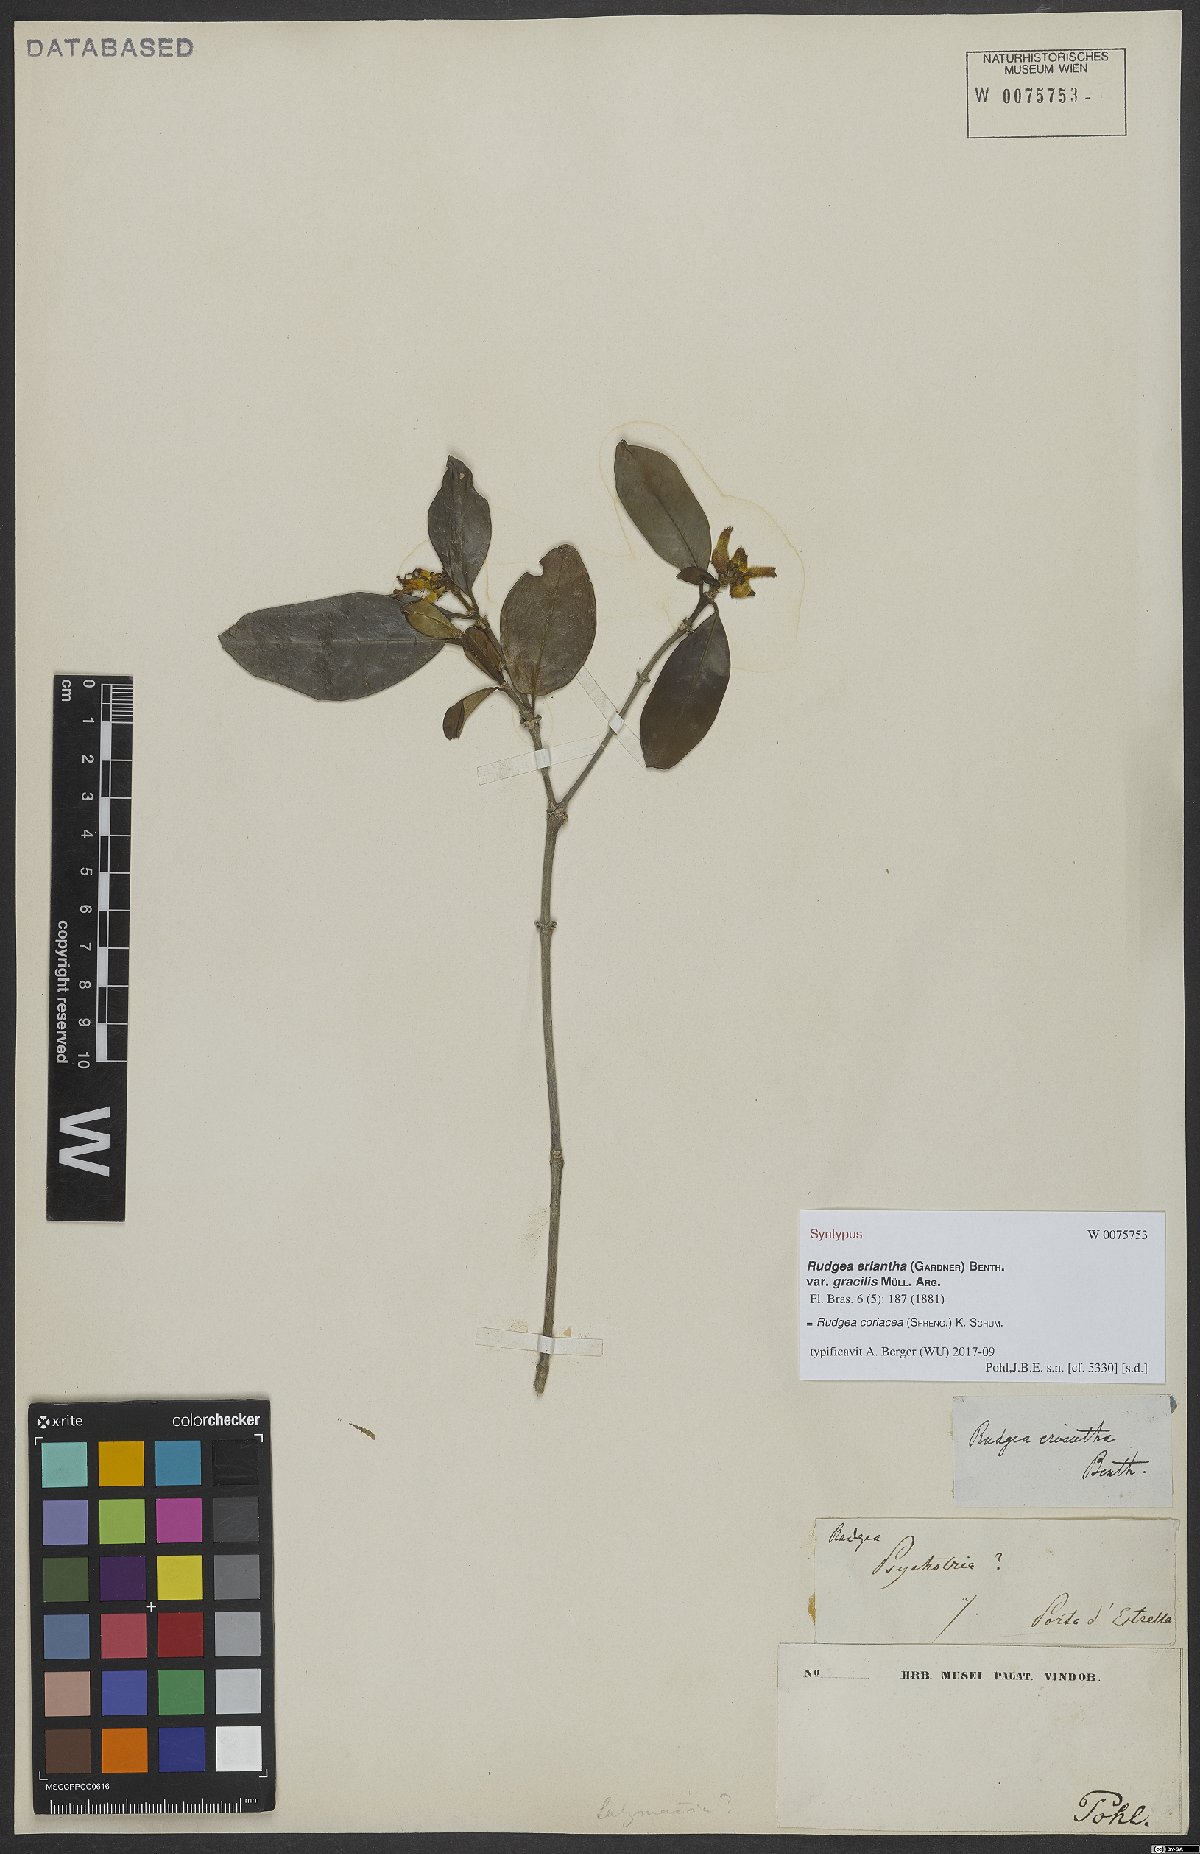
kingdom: Plantae
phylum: Tracheophyta
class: Magnoliopsida
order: Gentianales
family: Rubiaceae
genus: Rudgea
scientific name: Rudgea coriacea
